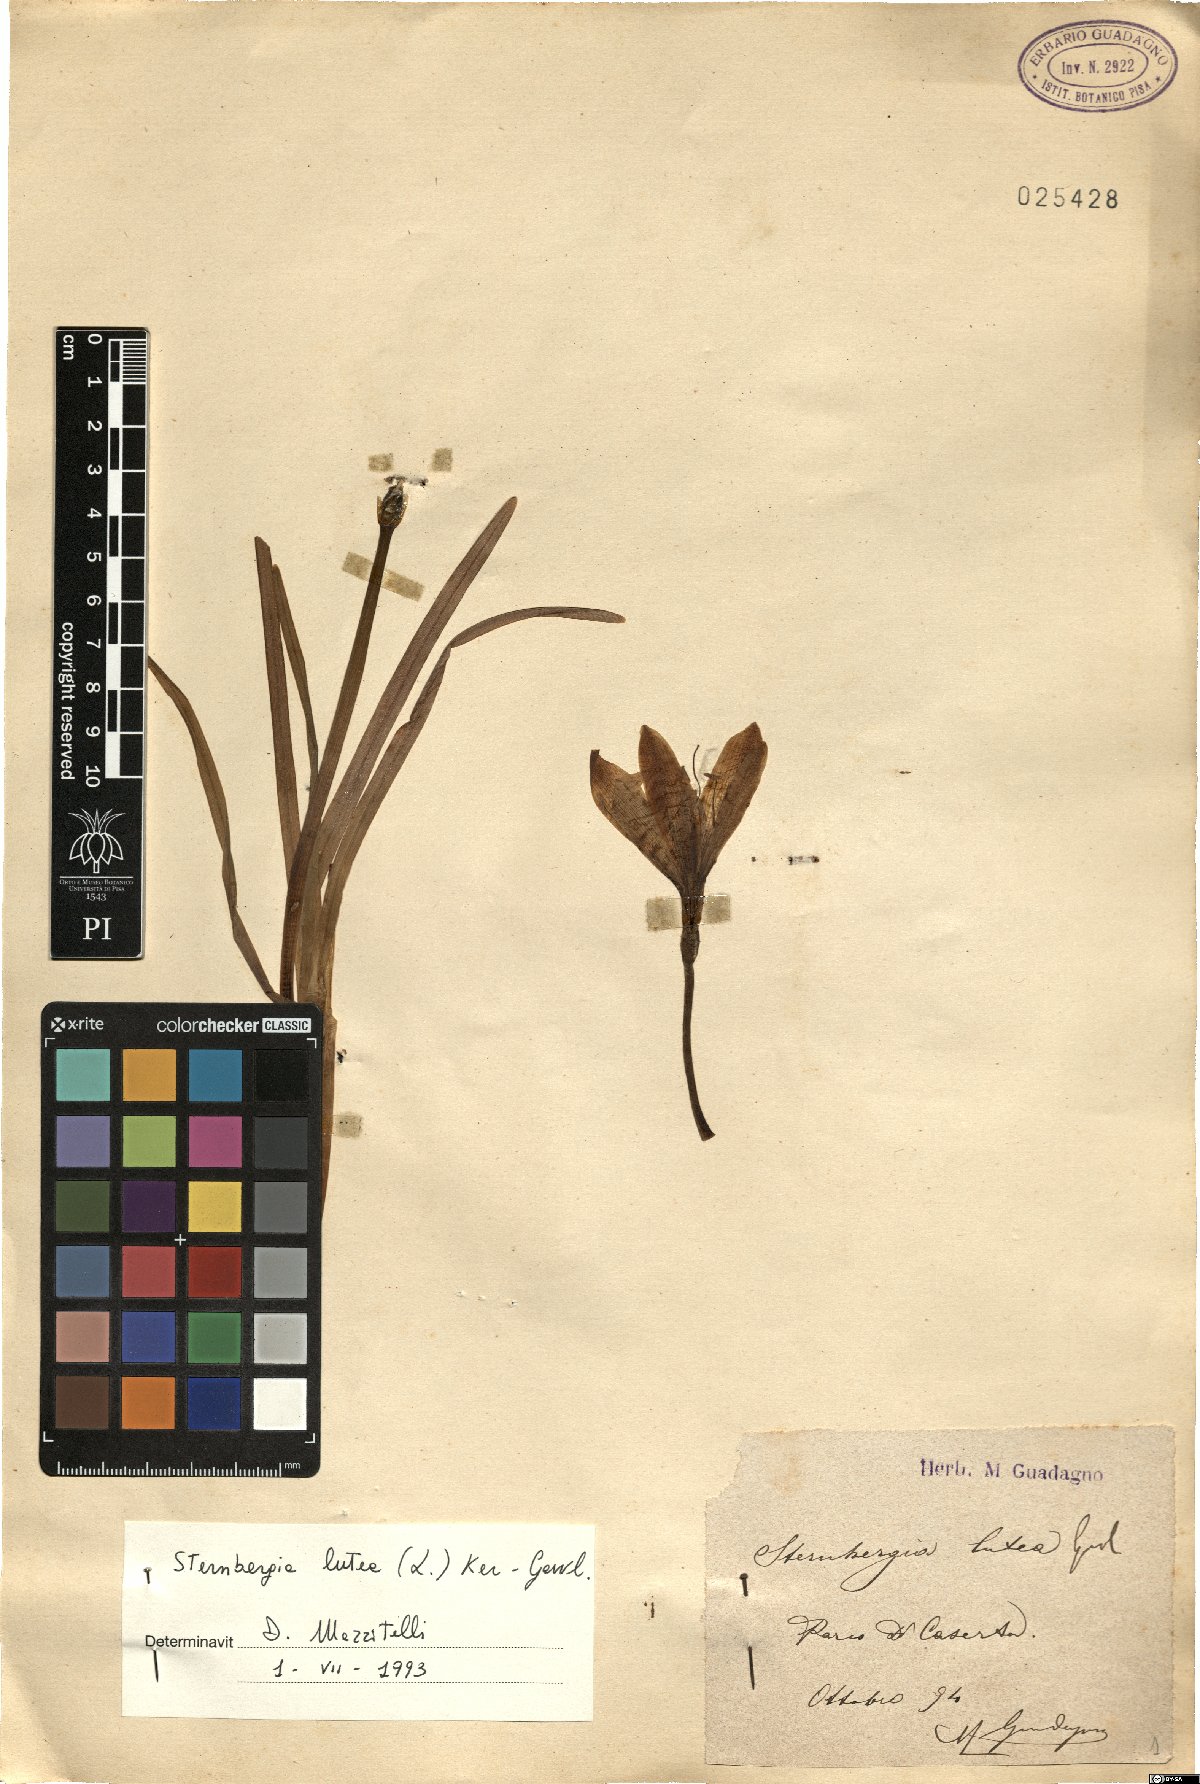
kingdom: Plantae
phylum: Tracheophyta
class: Liliopsida
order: Asparagales
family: Amaryllidaceae
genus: Sternbergia
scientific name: Sternbergia lutea
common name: Winter daffodil
